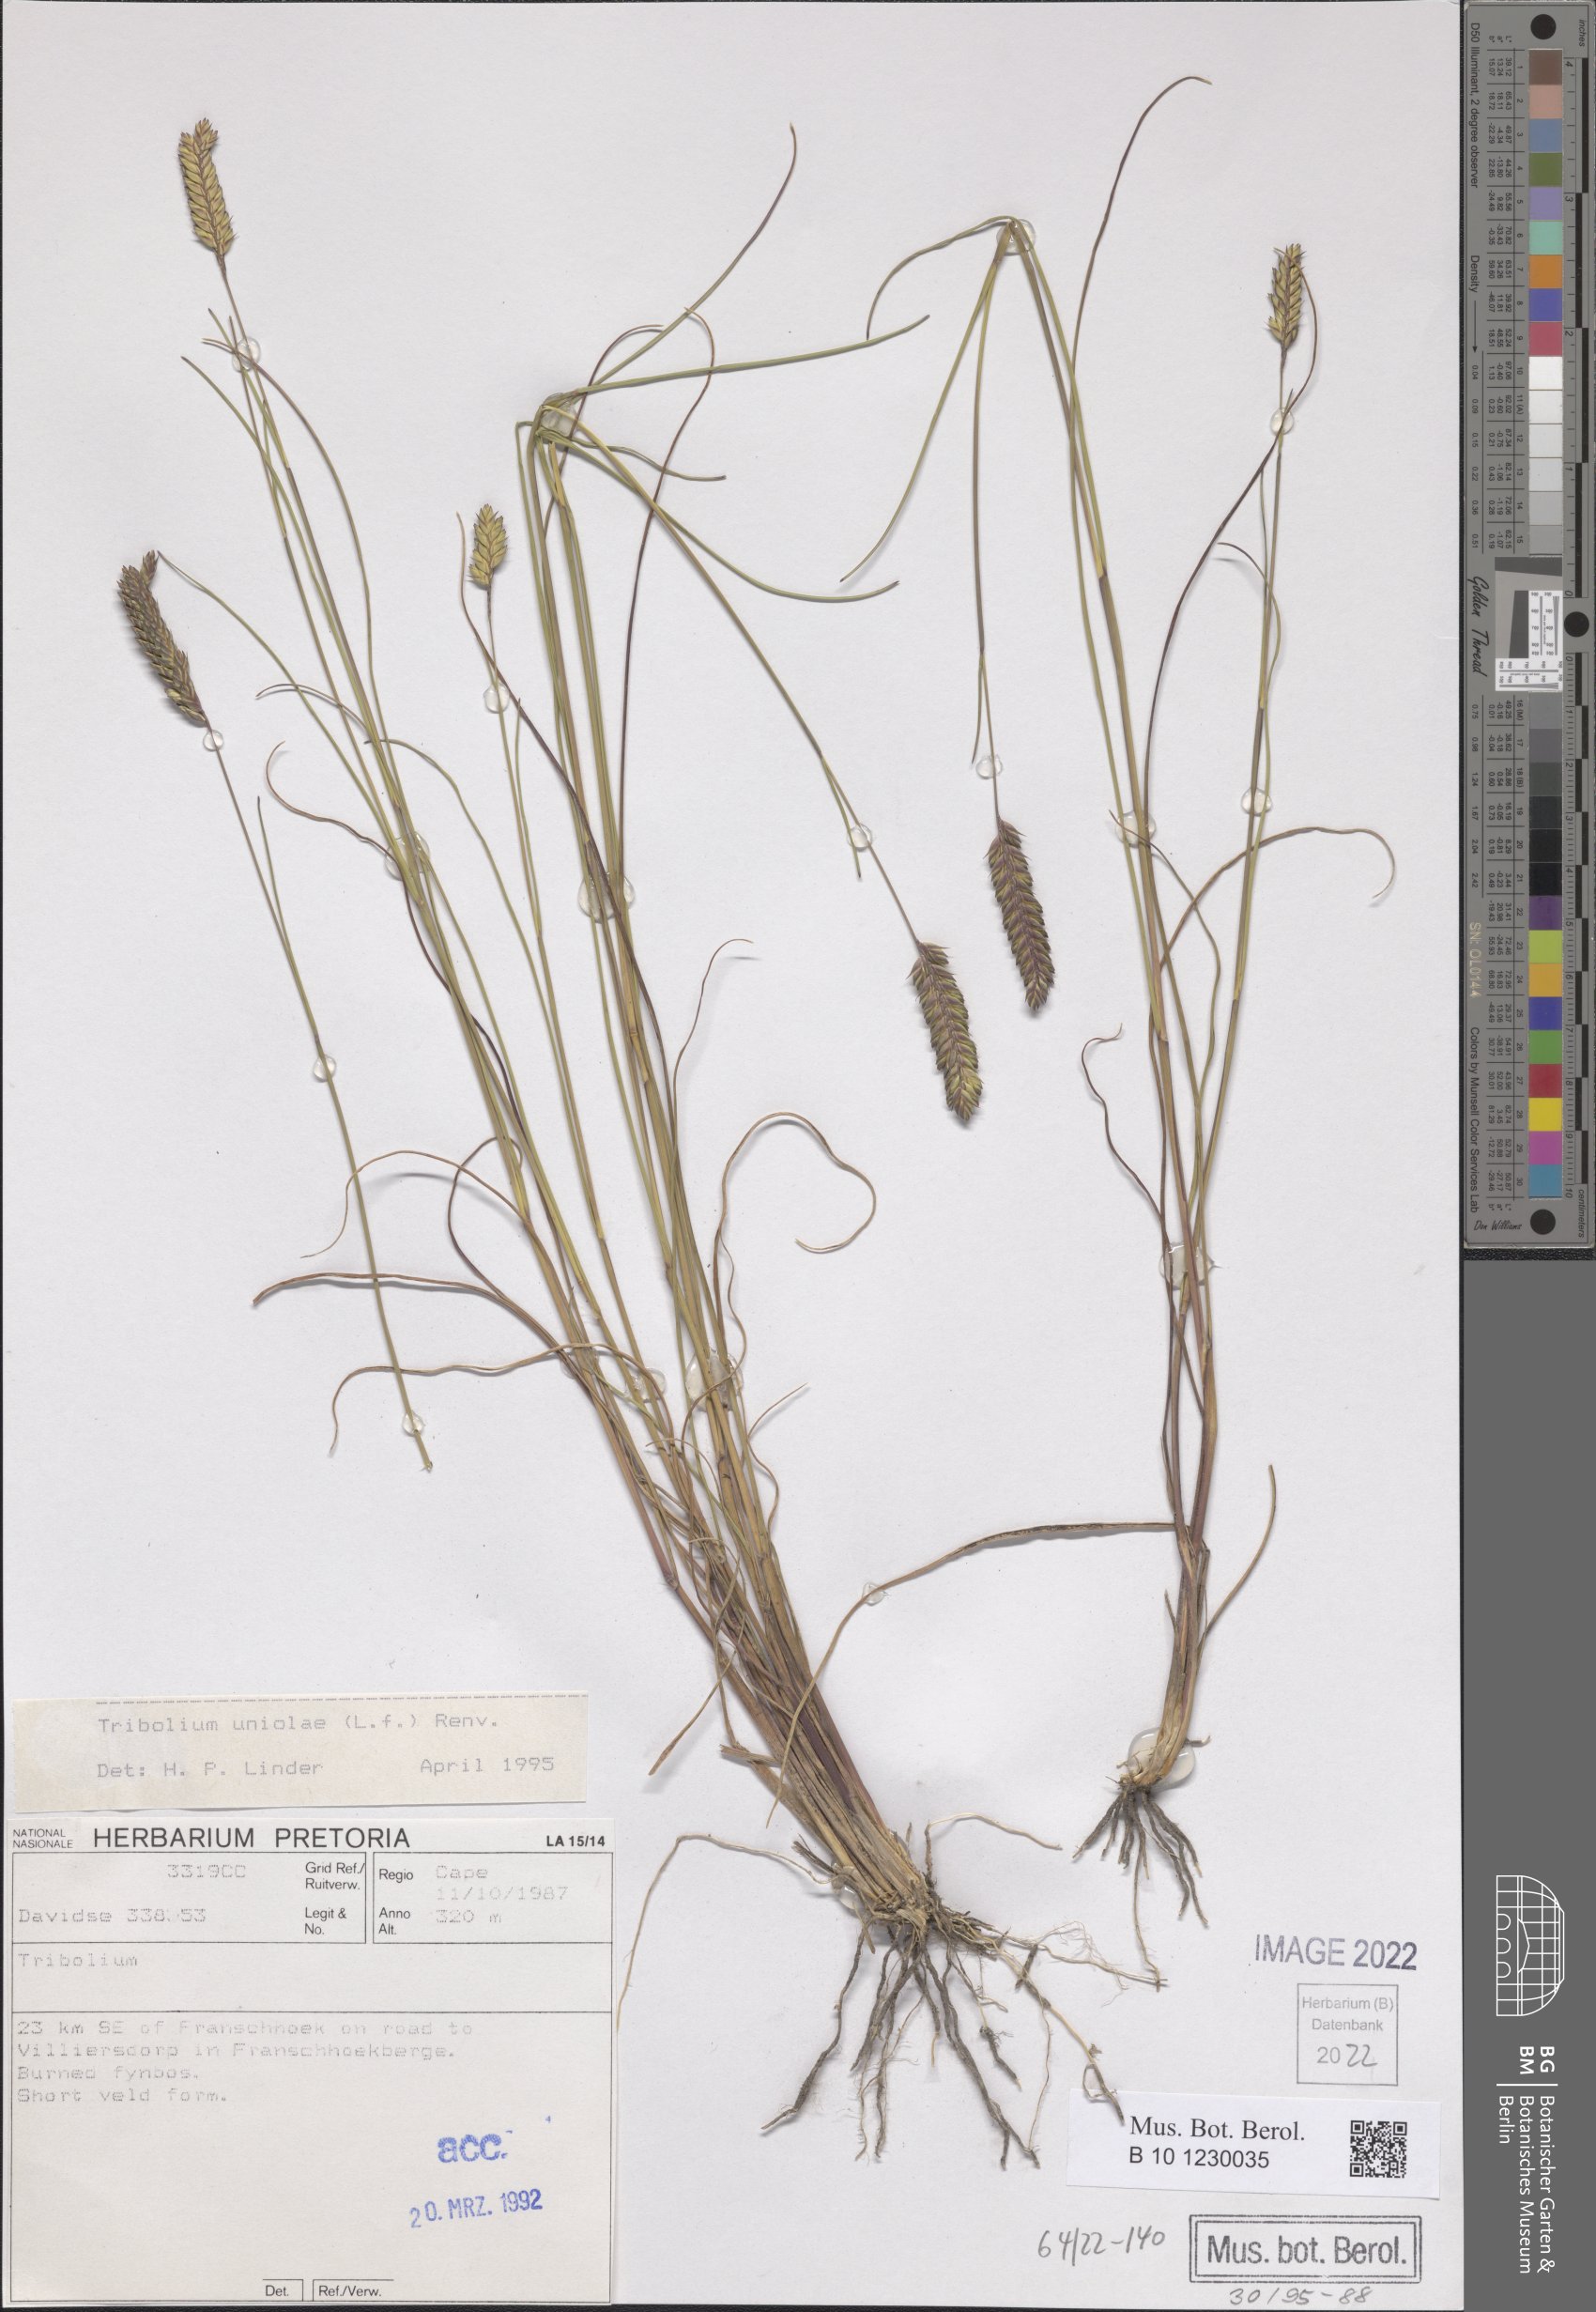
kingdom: Plantae
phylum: Tracheophyta
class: Liliopsida
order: Poales
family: Poaceae
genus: Tribolium
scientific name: Tribolium uniolae
